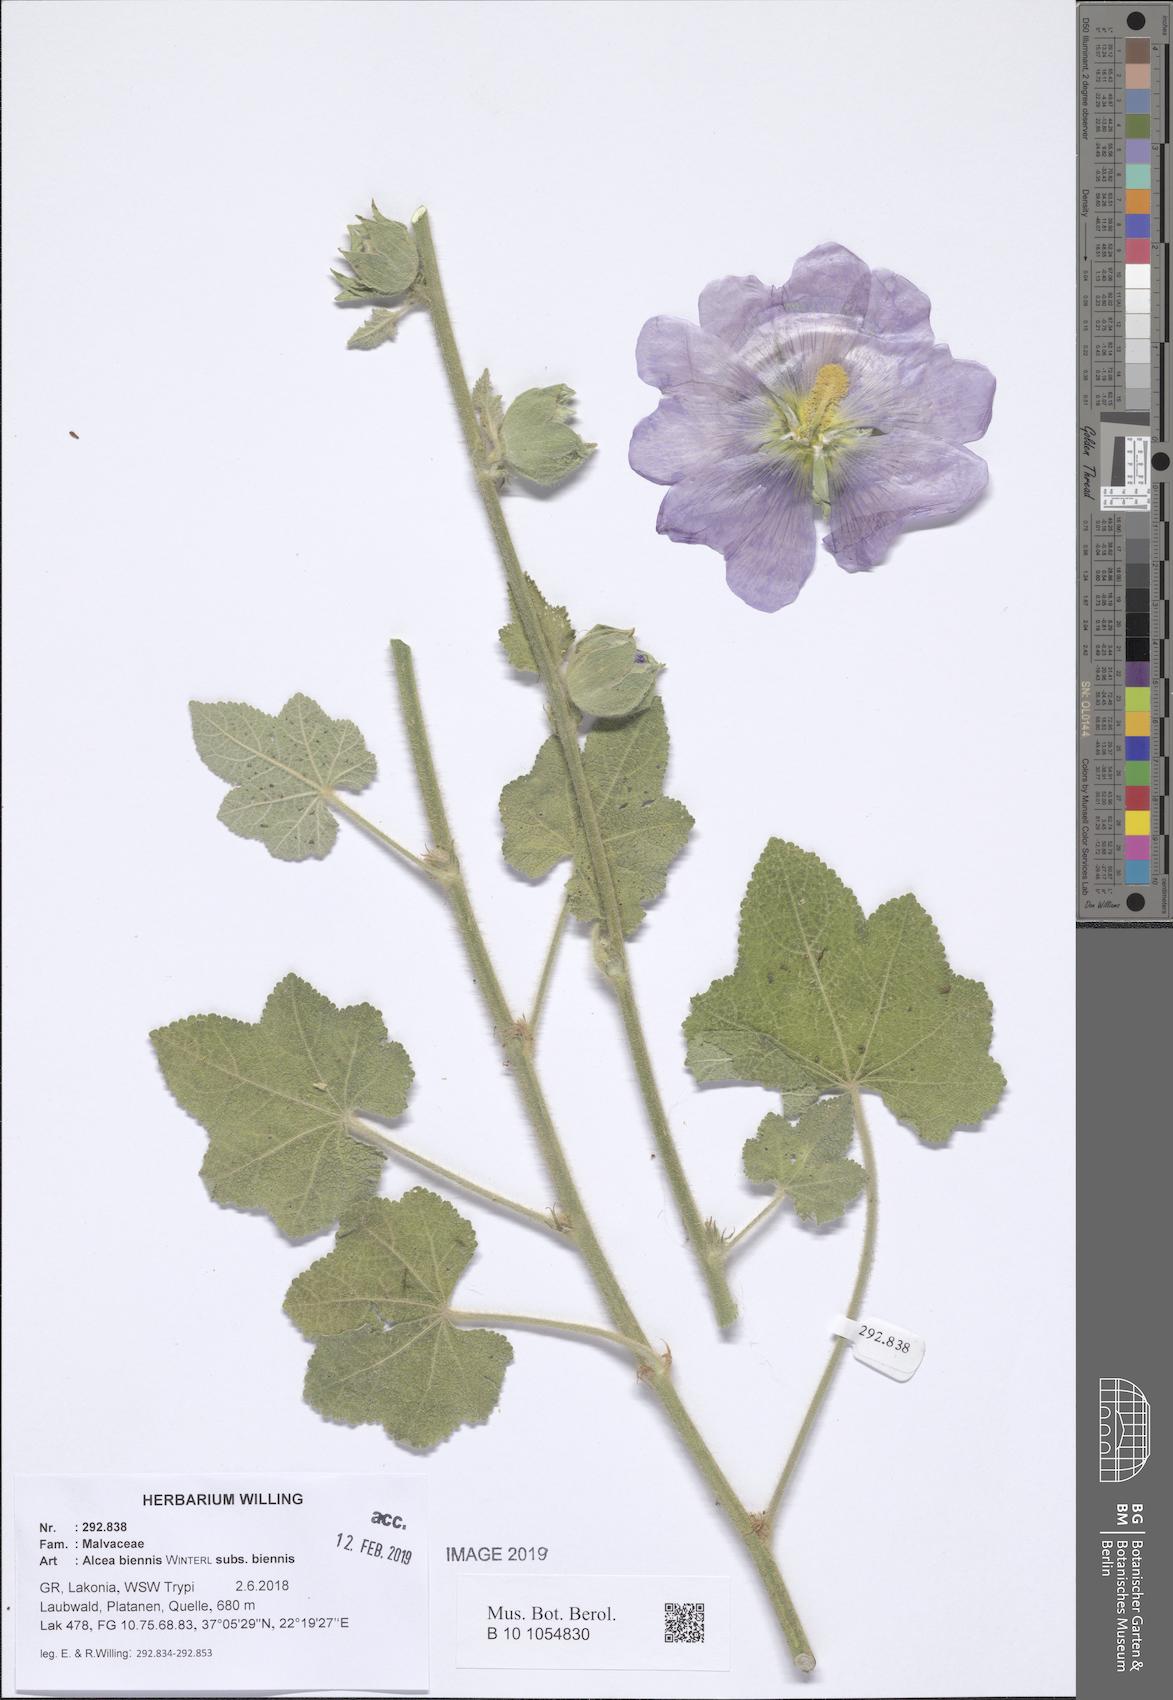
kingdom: Plantae
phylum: Tracheophyta
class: Magnoliopsida
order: Malvales
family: Malvaceae
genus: Alcea
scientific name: Alcea biennis
